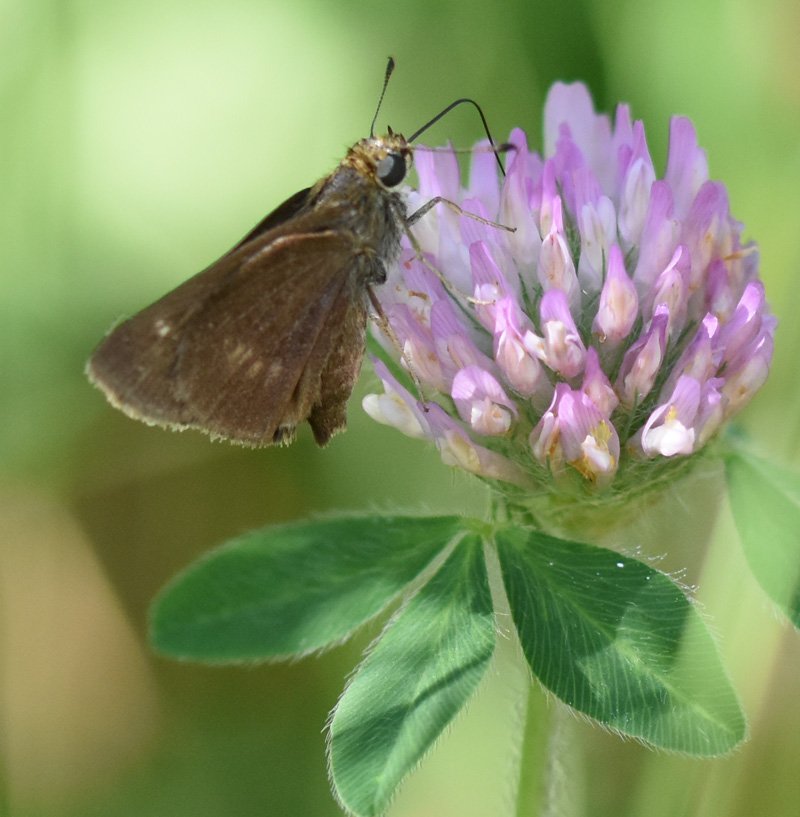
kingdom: Animalia
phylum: Arthropoda
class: Insecta
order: Lepidoptera
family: Hesperiidae
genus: Polites
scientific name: Polites egeremet
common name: Northern Broken-Dash
